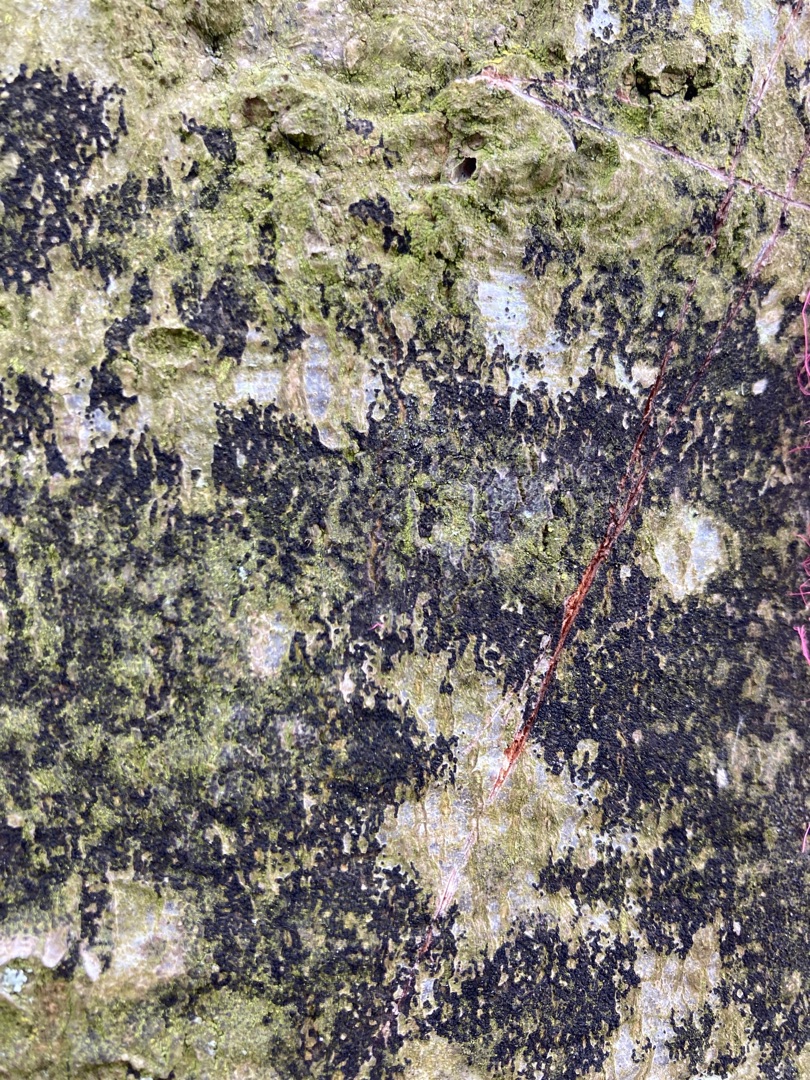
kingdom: Fungi
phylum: Ascomycota
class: Leotiomycetes
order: Rhytismatales
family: Ascodichaenaceae
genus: Ascodichaena
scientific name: Ascodichaena rugosa
